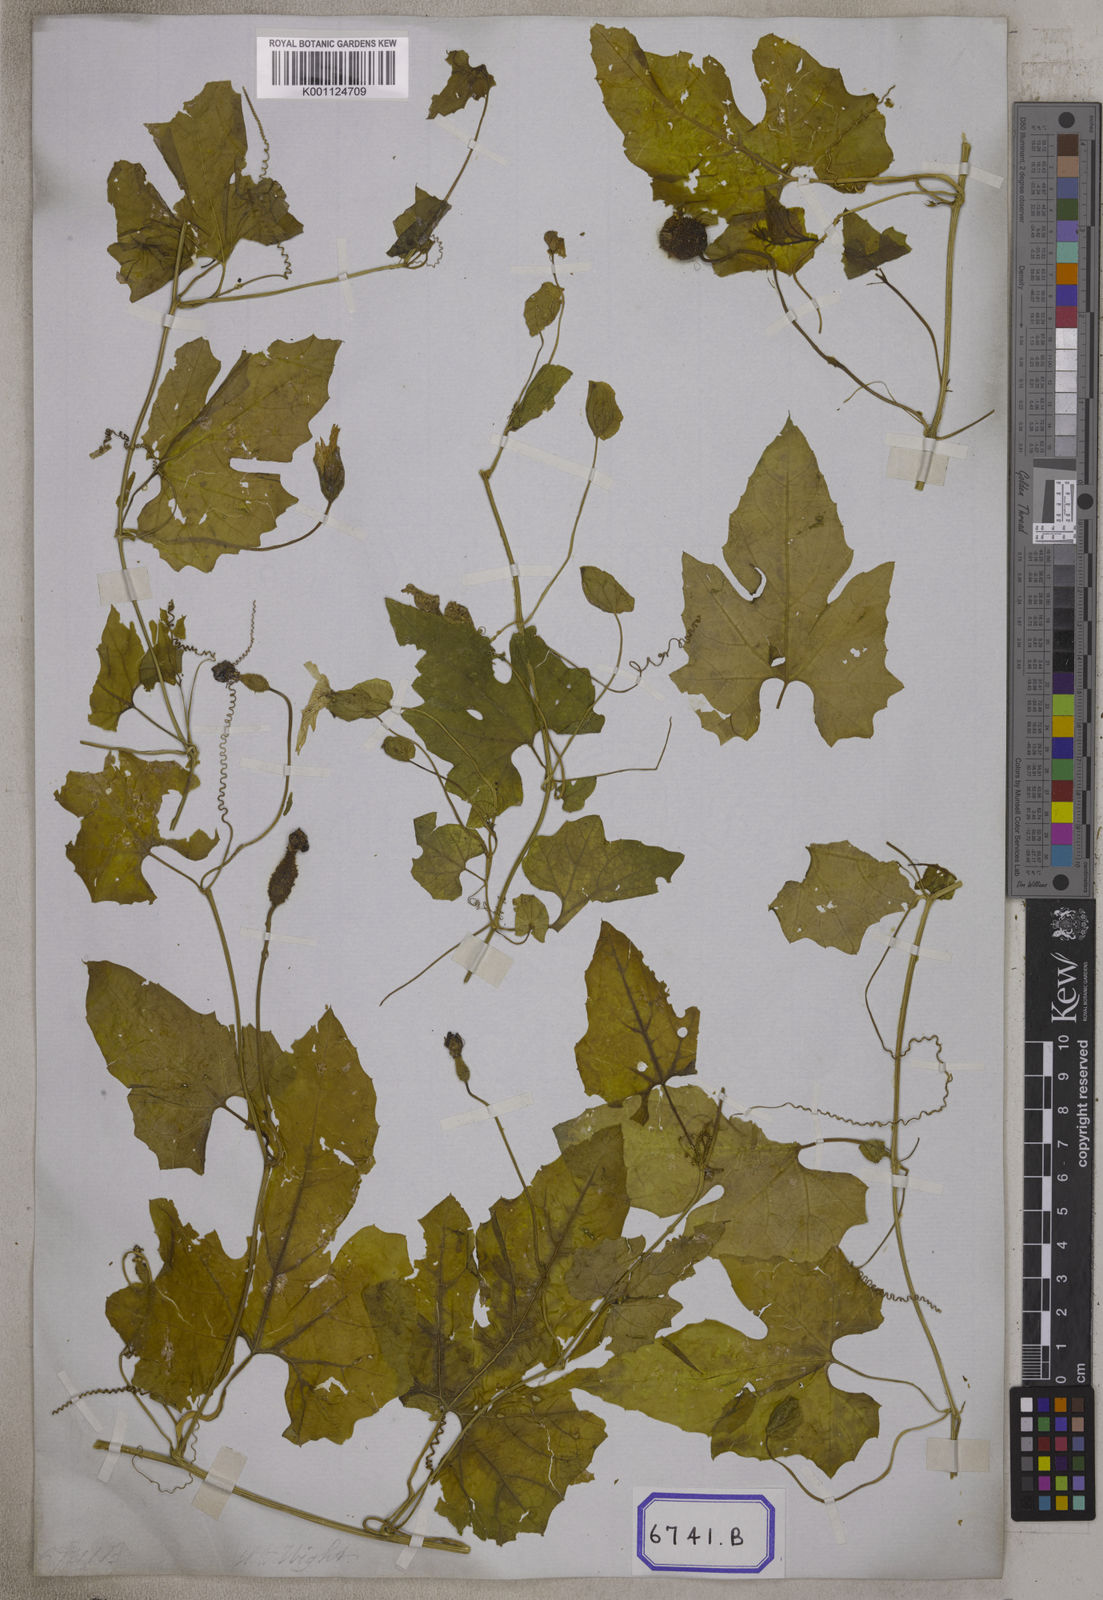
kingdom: Plantae
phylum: Tracheophyta
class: Magnoliopsida
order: Cucurbitales
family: Cucurbitaceae
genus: Momordica
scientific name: Momordica
